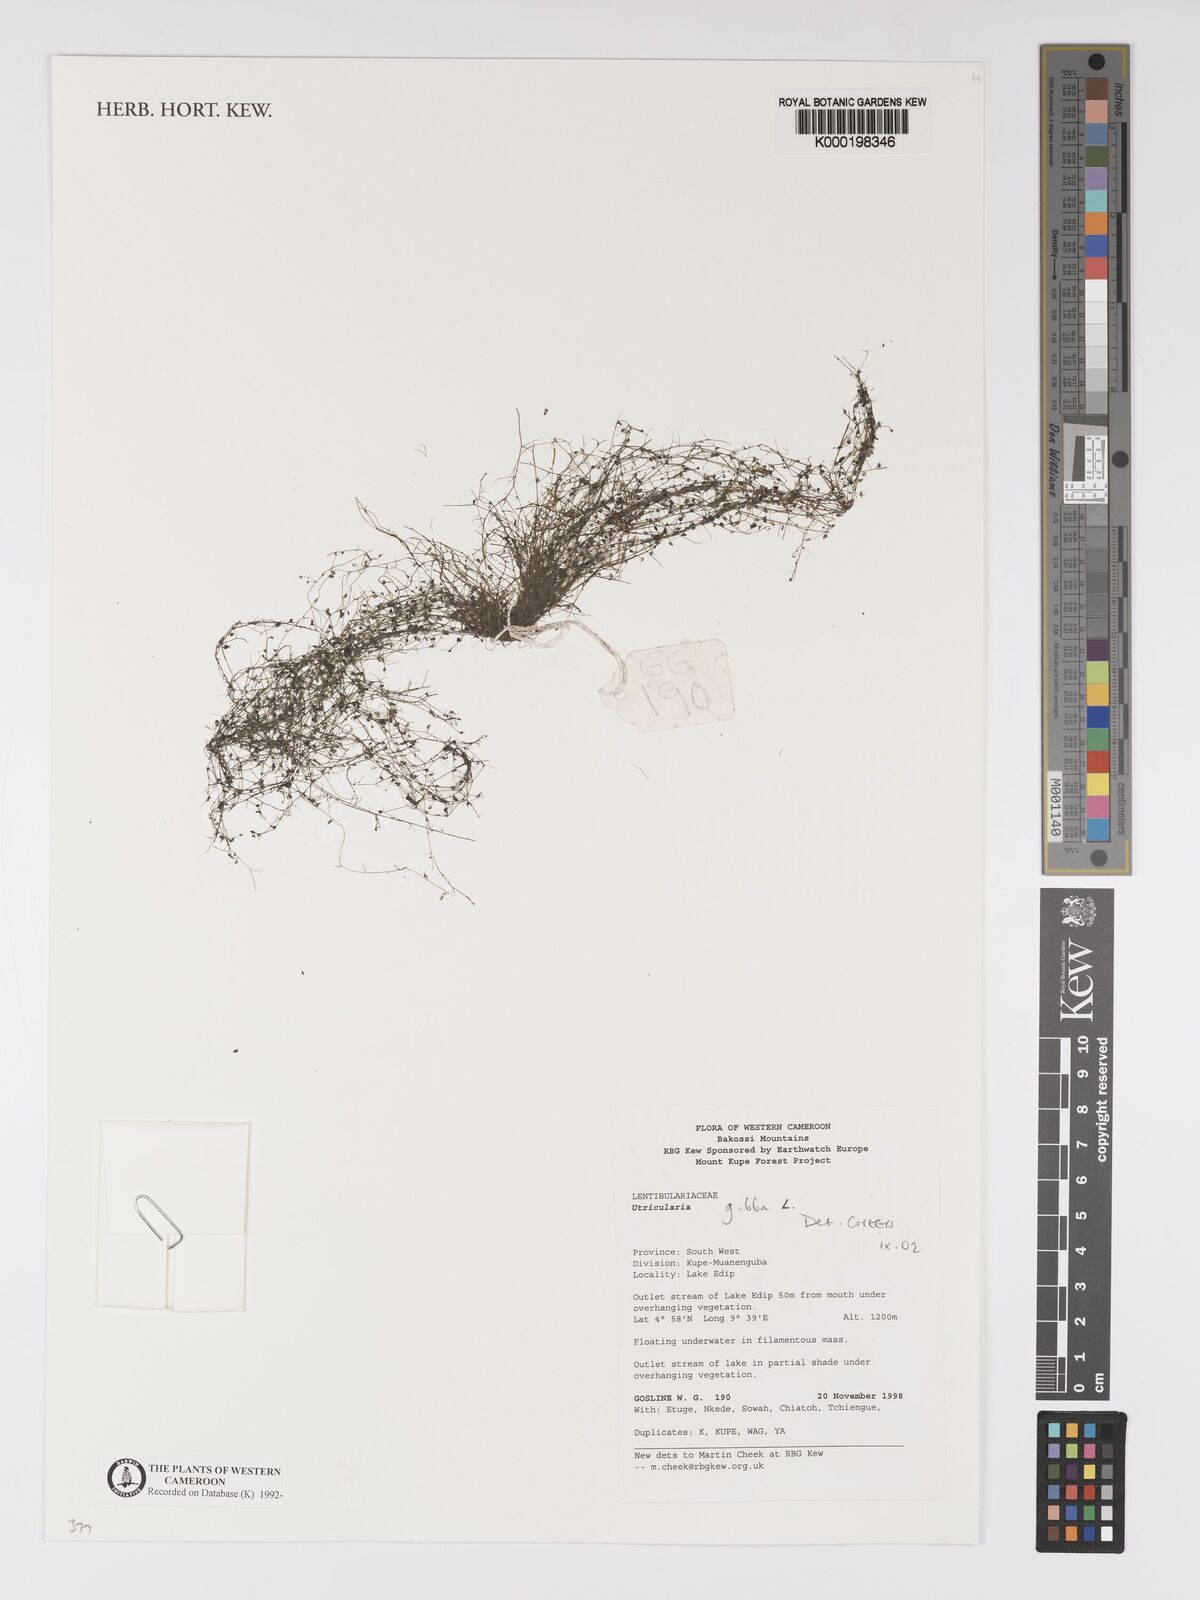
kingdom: Plantae
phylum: Tracheophyta
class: Magnoliopsida
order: Lamiales
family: Lentibulariaceae
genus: Utricularia
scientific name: Utricularia gibba
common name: Humped bladderwort
